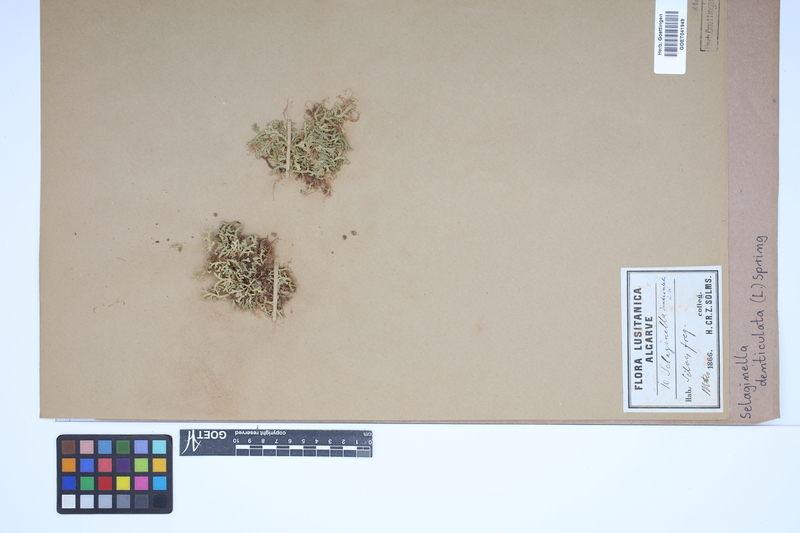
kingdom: Plantae
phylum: Tracheophyta
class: Lycopodiopsida
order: Selaginellales
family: Selaginellaceae
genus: Selaginella
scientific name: Selaginella denticulata
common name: Toothed-leaved clubmoss
